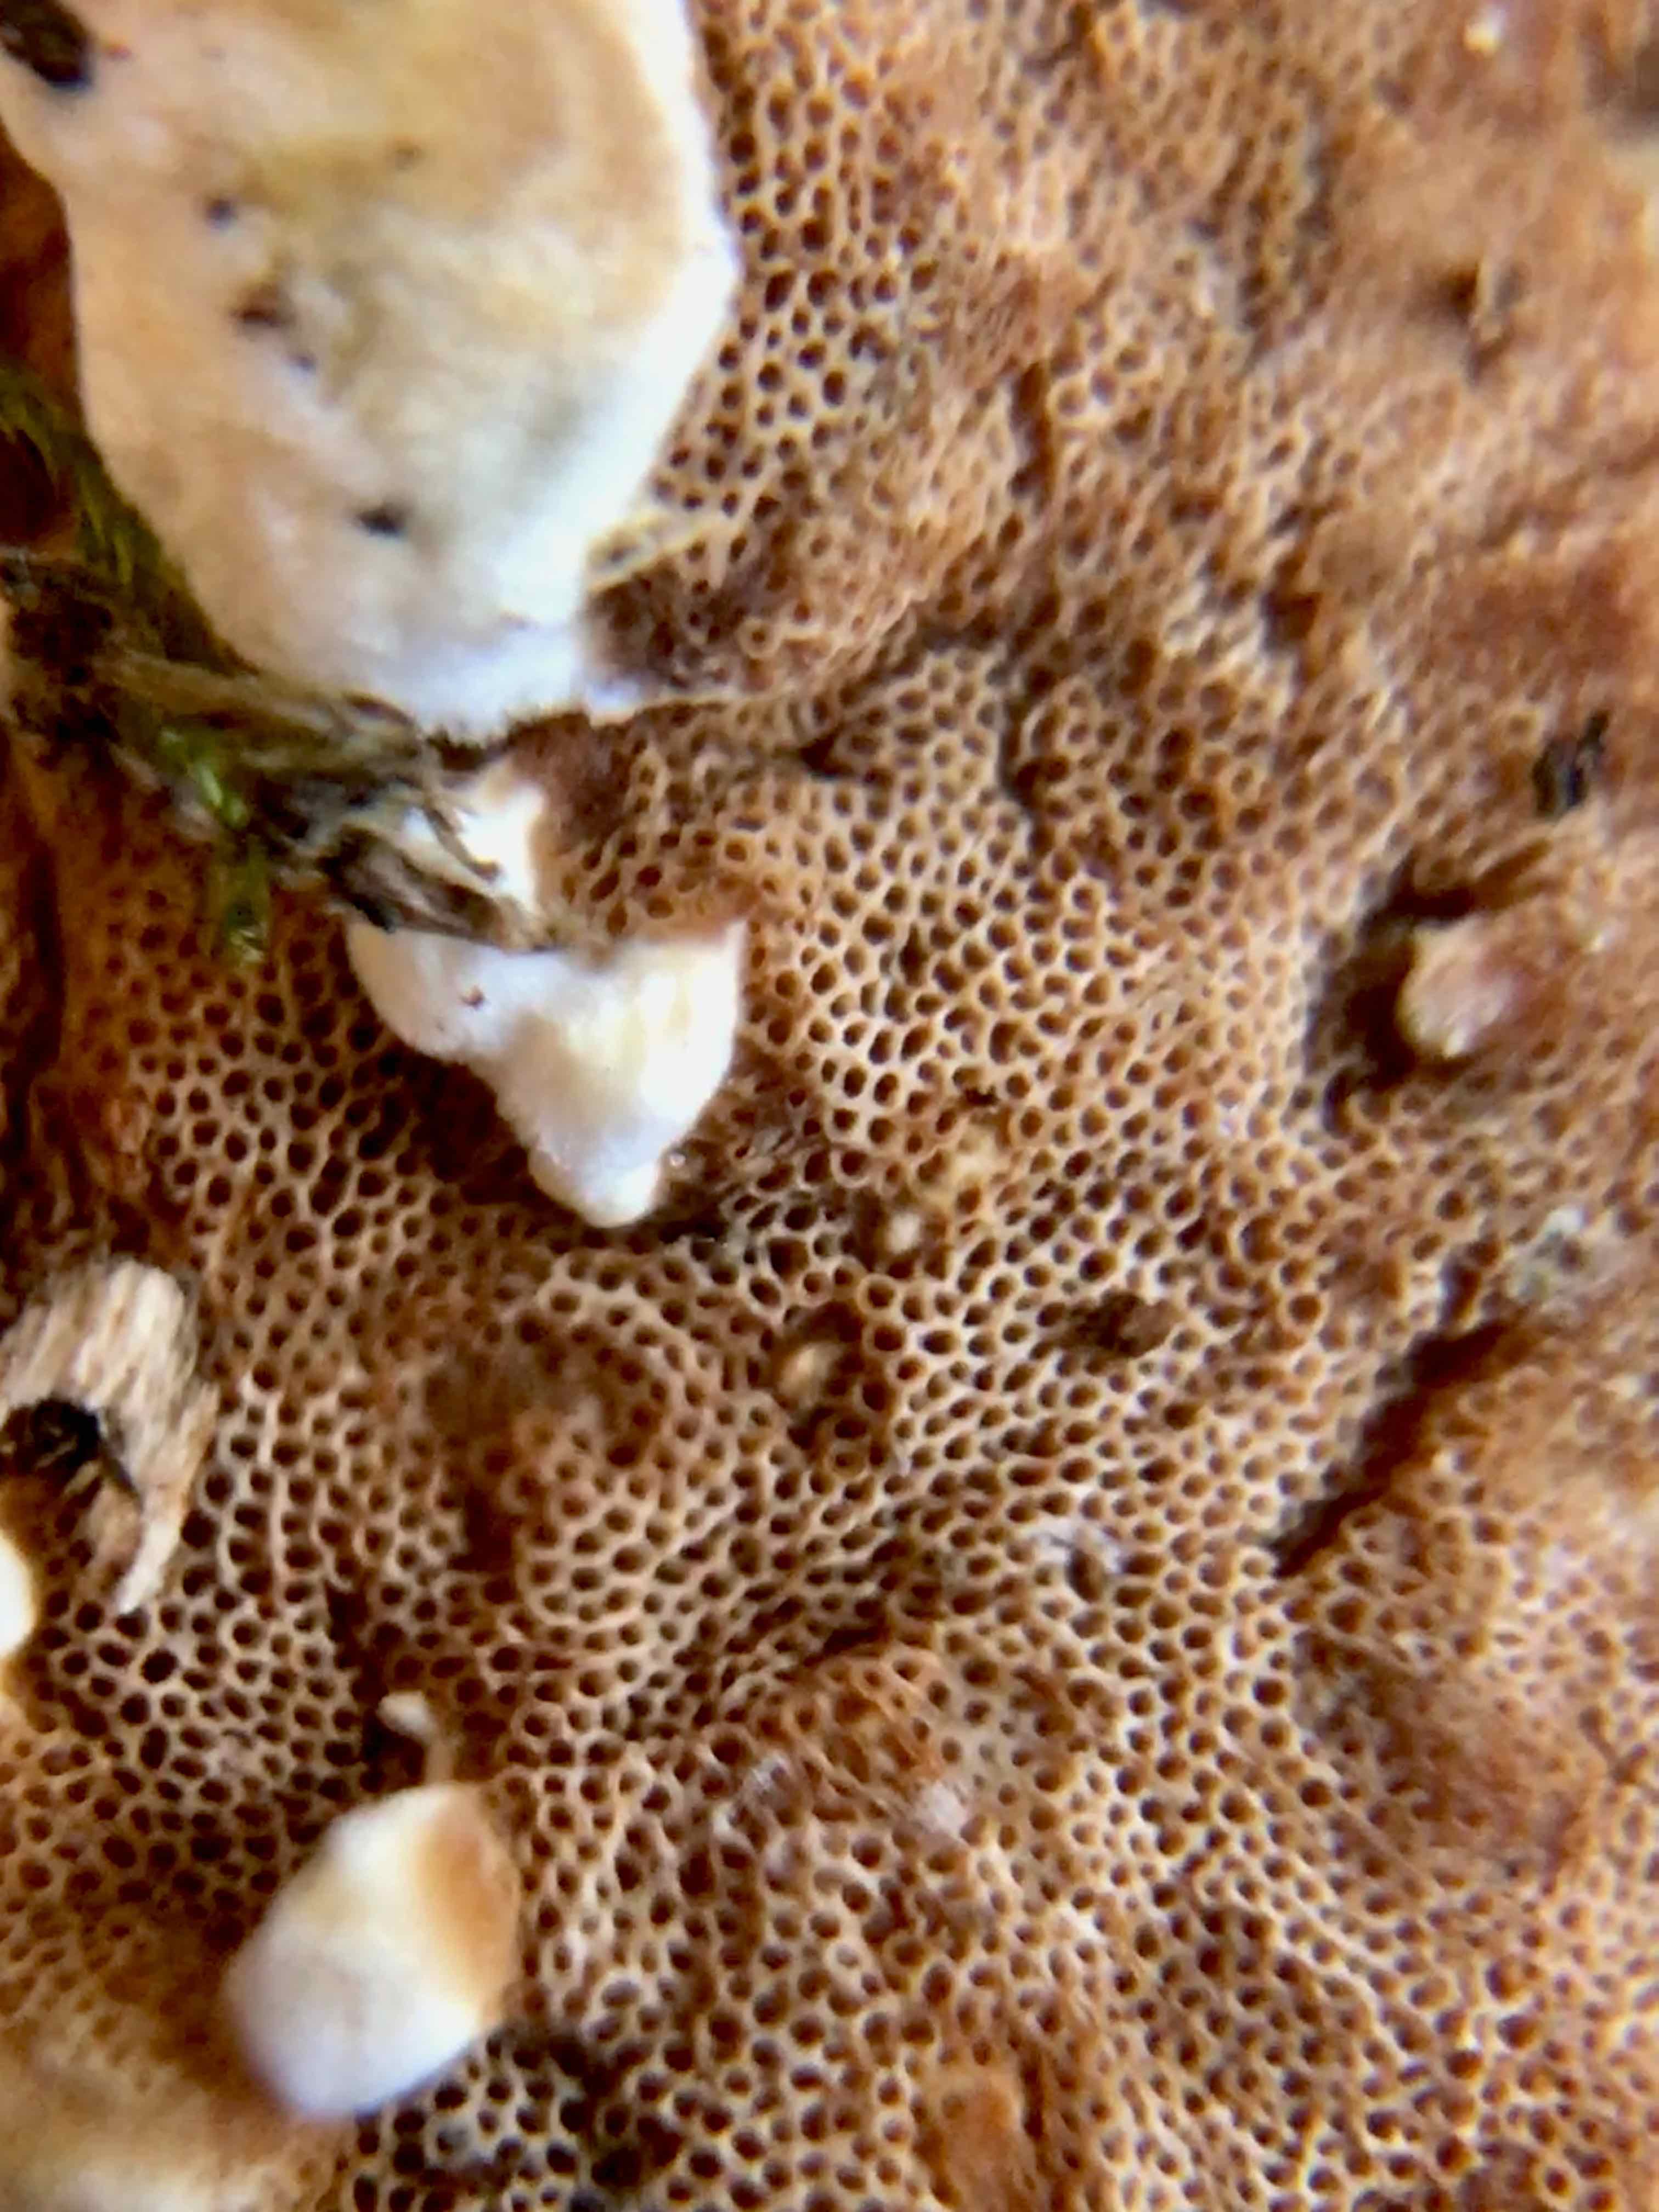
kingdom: Fungi
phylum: Basidiomycota
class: Agaricomycetes
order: Polyporales
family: Irpicaceae
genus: Meruliopsis
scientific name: Meruliopsis taxicola
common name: purpurbrun foldporesvamp
